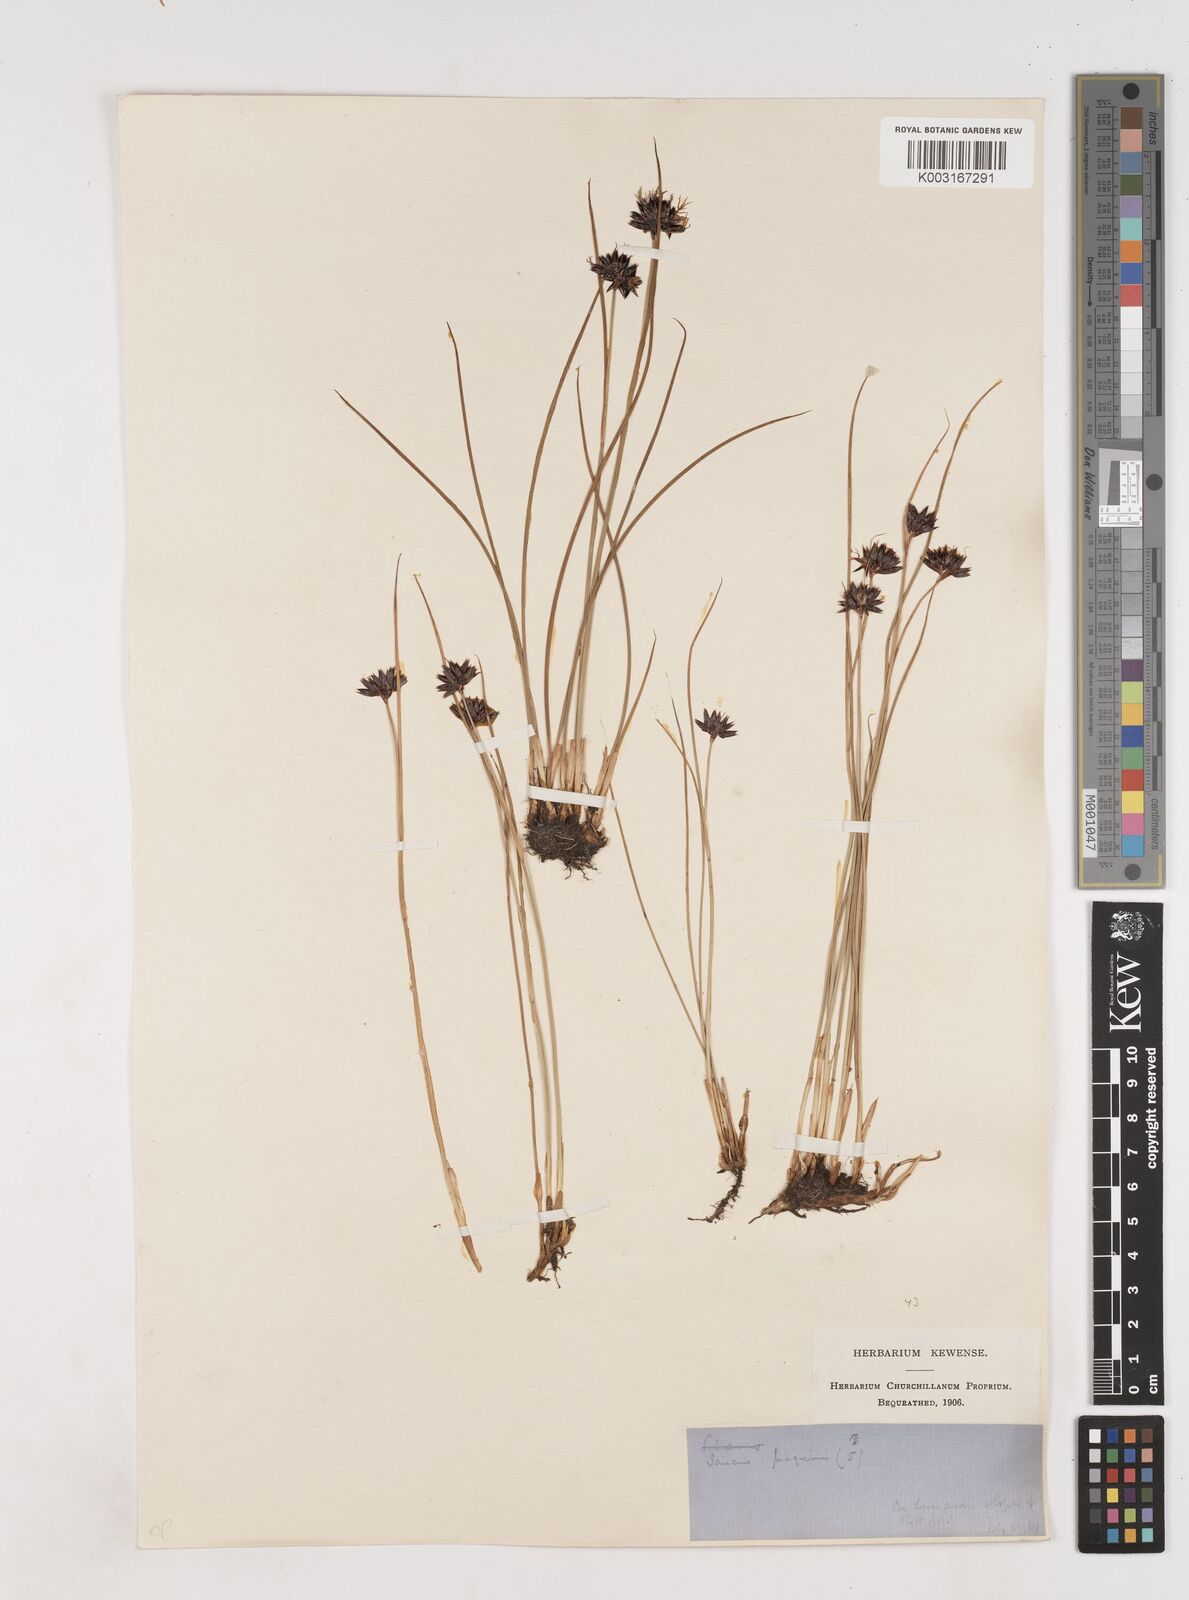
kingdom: Plantae
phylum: Tracheophyta
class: Liliopsida
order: Poales
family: Juncaceae
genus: Juncus
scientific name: Juncus jacquinii
